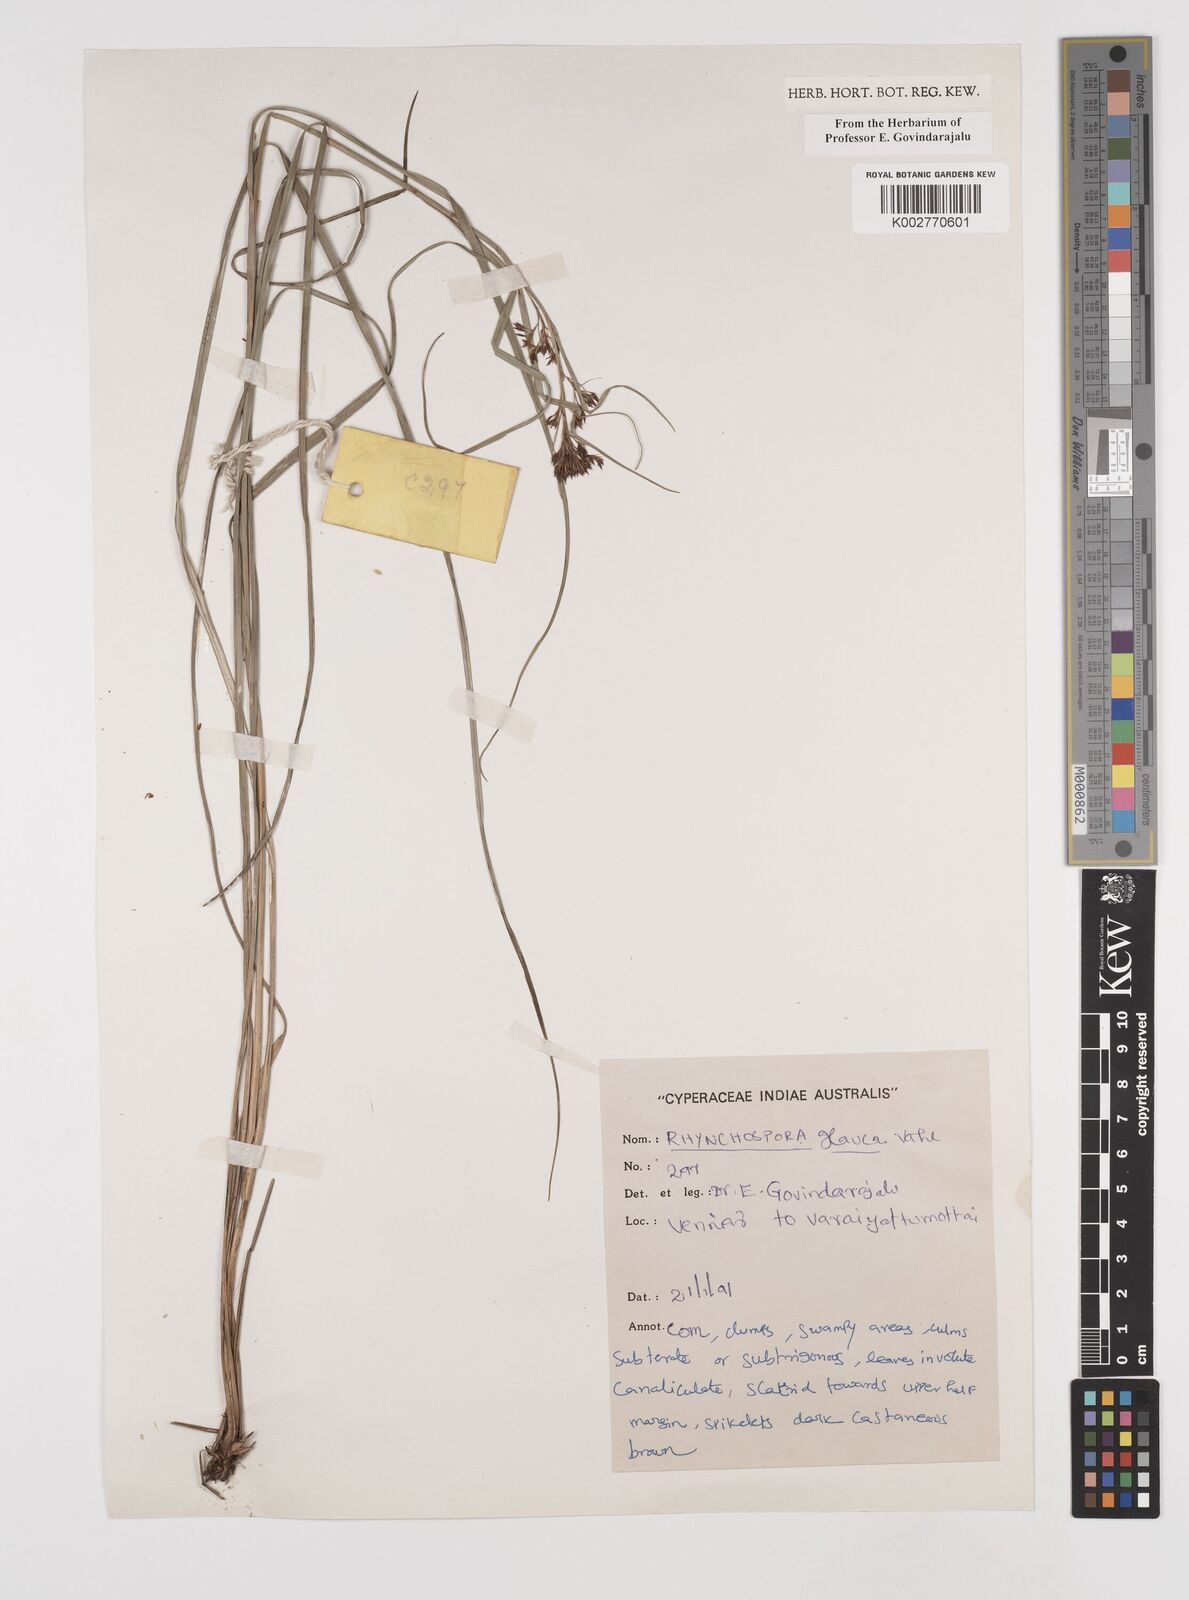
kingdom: Plantae
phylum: Tracheophyta
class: Liliopsida
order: Poales
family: Cyperaceae
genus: Rhynchospora
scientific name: Rhynchospora rugosa
